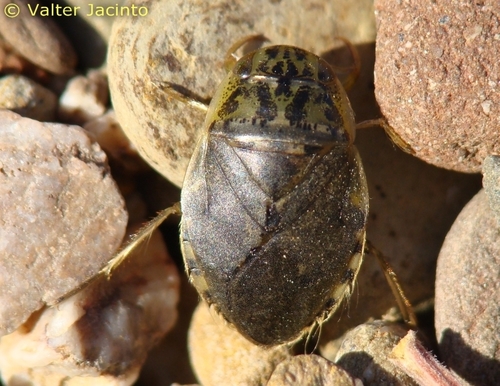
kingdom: Animalia
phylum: Arthropoda
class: Insecta
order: Hemiptera
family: Naucoridae
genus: Naucoris
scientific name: Naucoris maculatus
